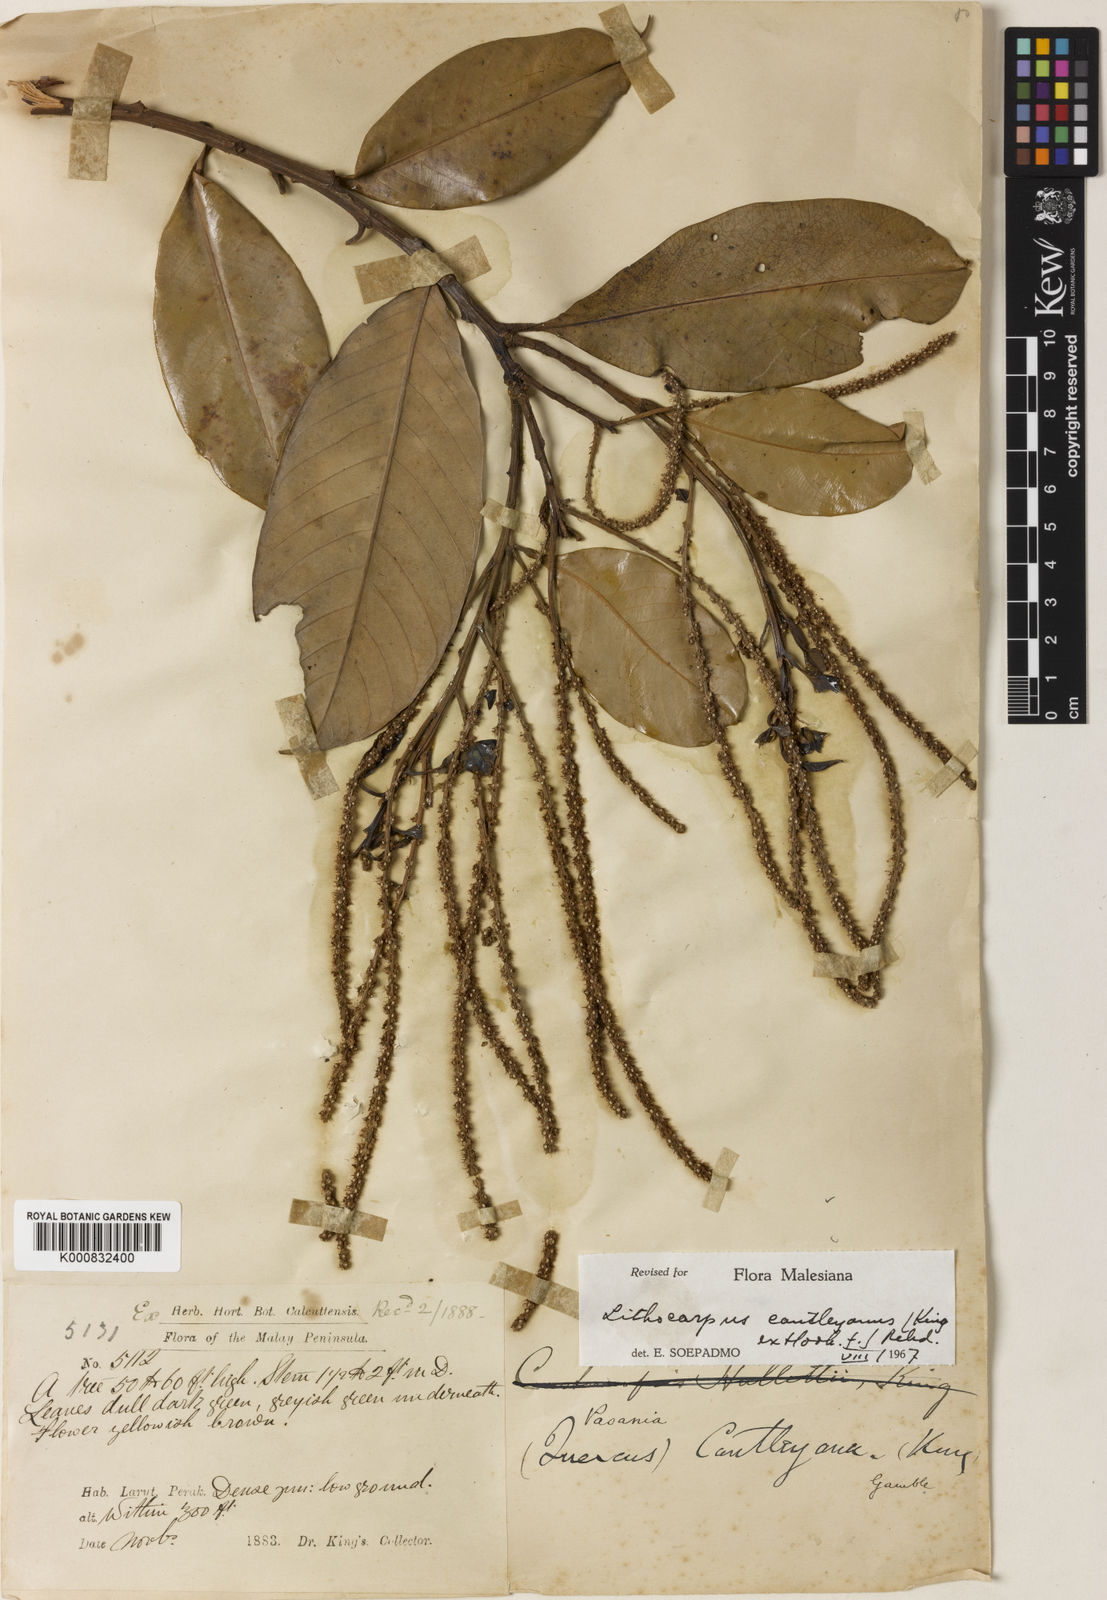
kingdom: Plantae
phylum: Tracheophyta
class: Magnoliopsida
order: Fagales
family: Fagaceae
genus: Lithocarpus
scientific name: Lithocarpus cantleyanus
